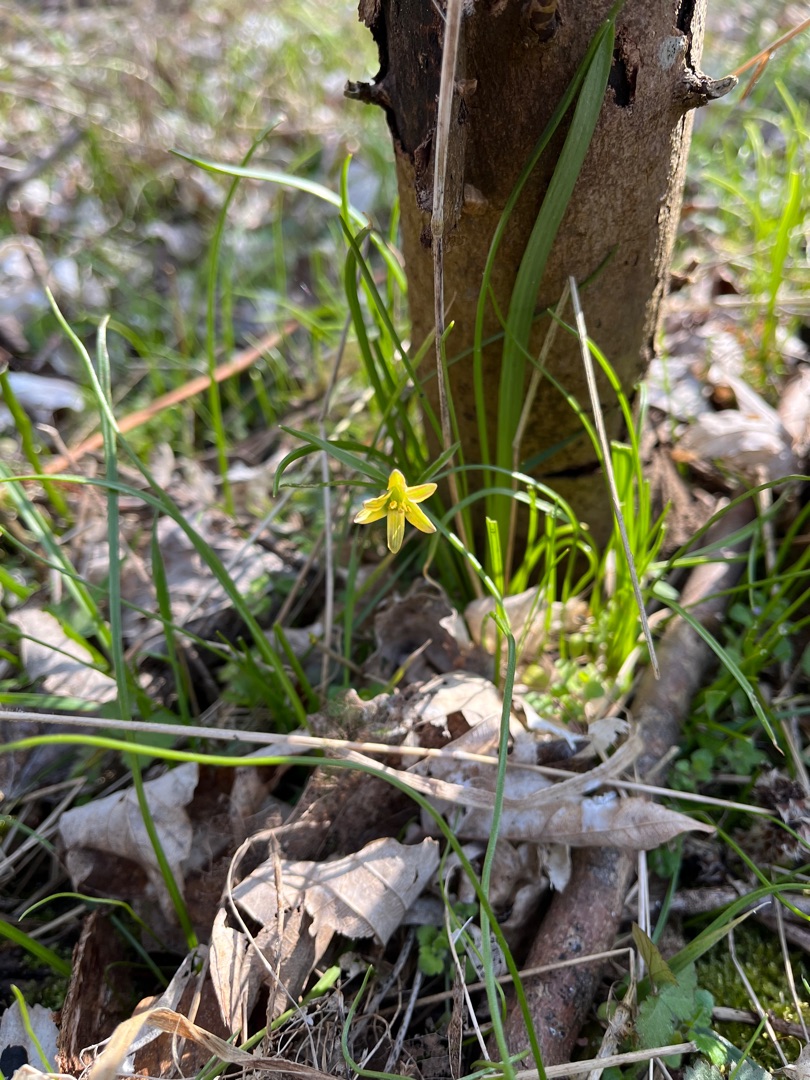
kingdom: Plantae
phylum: Tracheophyta
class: Liliopsida
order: Liliales
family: Liliaceae
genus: Gagea
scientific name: Gagea lutea
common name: Almindelig guldstjerne
